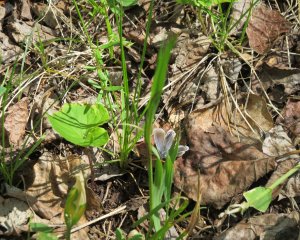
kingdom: Animalia
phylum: Arthropoda
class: Insecta
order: Lepidoptera
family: Lycaenidae
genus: Agriades
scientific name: Agriades glandon
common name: Arctic Blue
